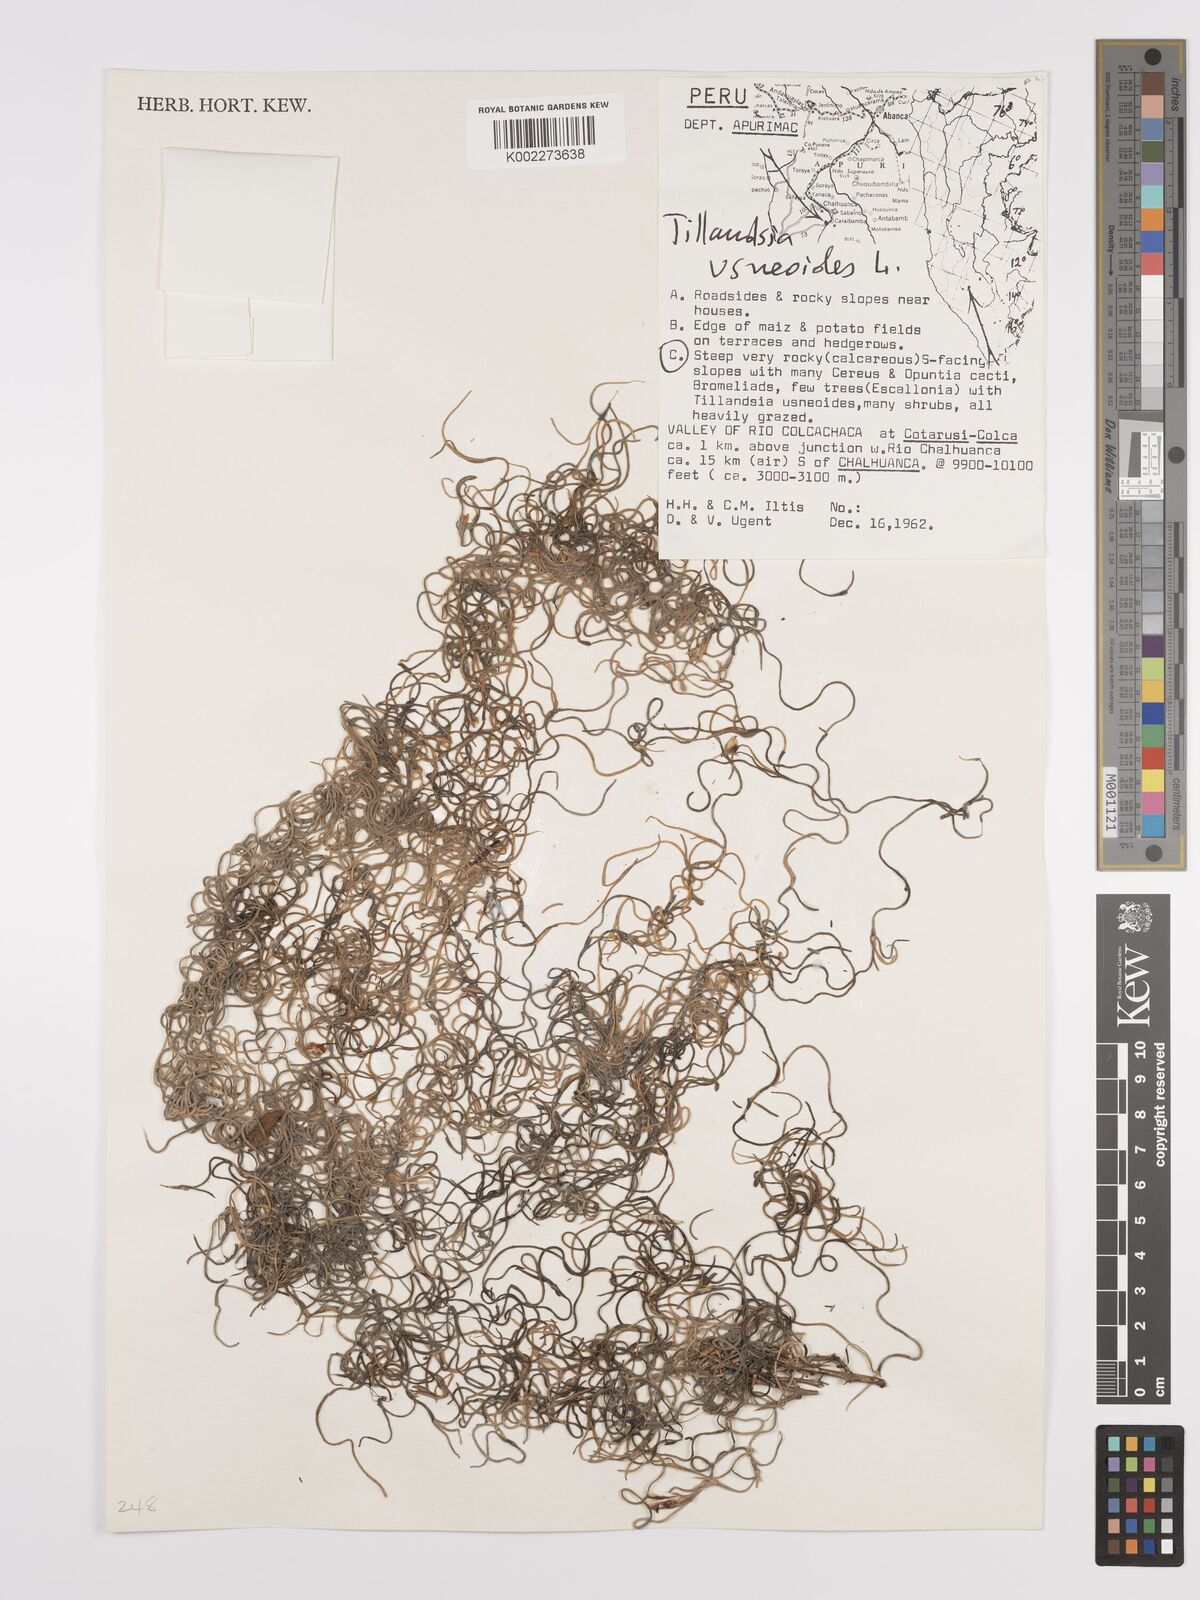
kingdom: Plantae
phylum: Tracheophyta
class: Liliopsida
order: Poales
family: Bromeliaceae
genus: Tillandsia
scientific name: Tillandsia usneoides
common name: Spanish moss
